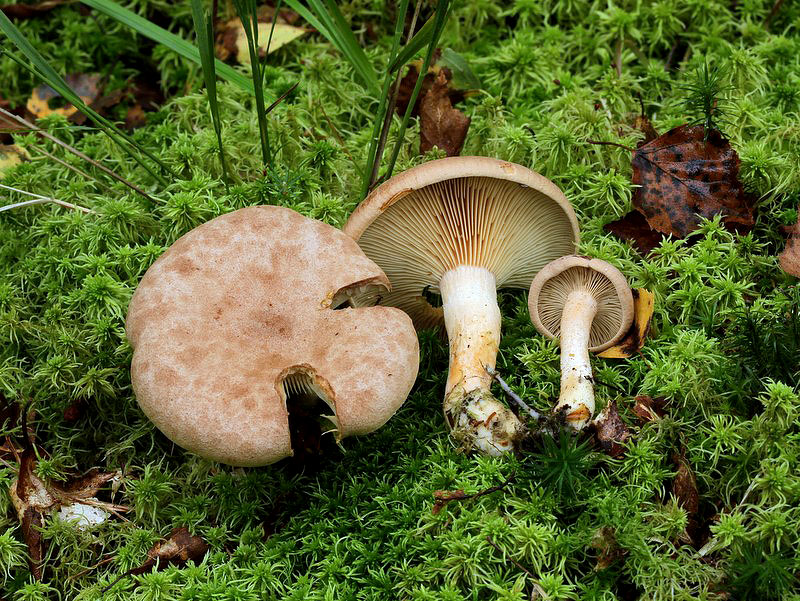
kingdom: Fungi
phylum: Basidiomycota
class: Agaricomycetes
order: Russulales
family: Russulaceae
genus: Lactarius
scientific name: Lactarius helvus
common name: mose-mælkehat
